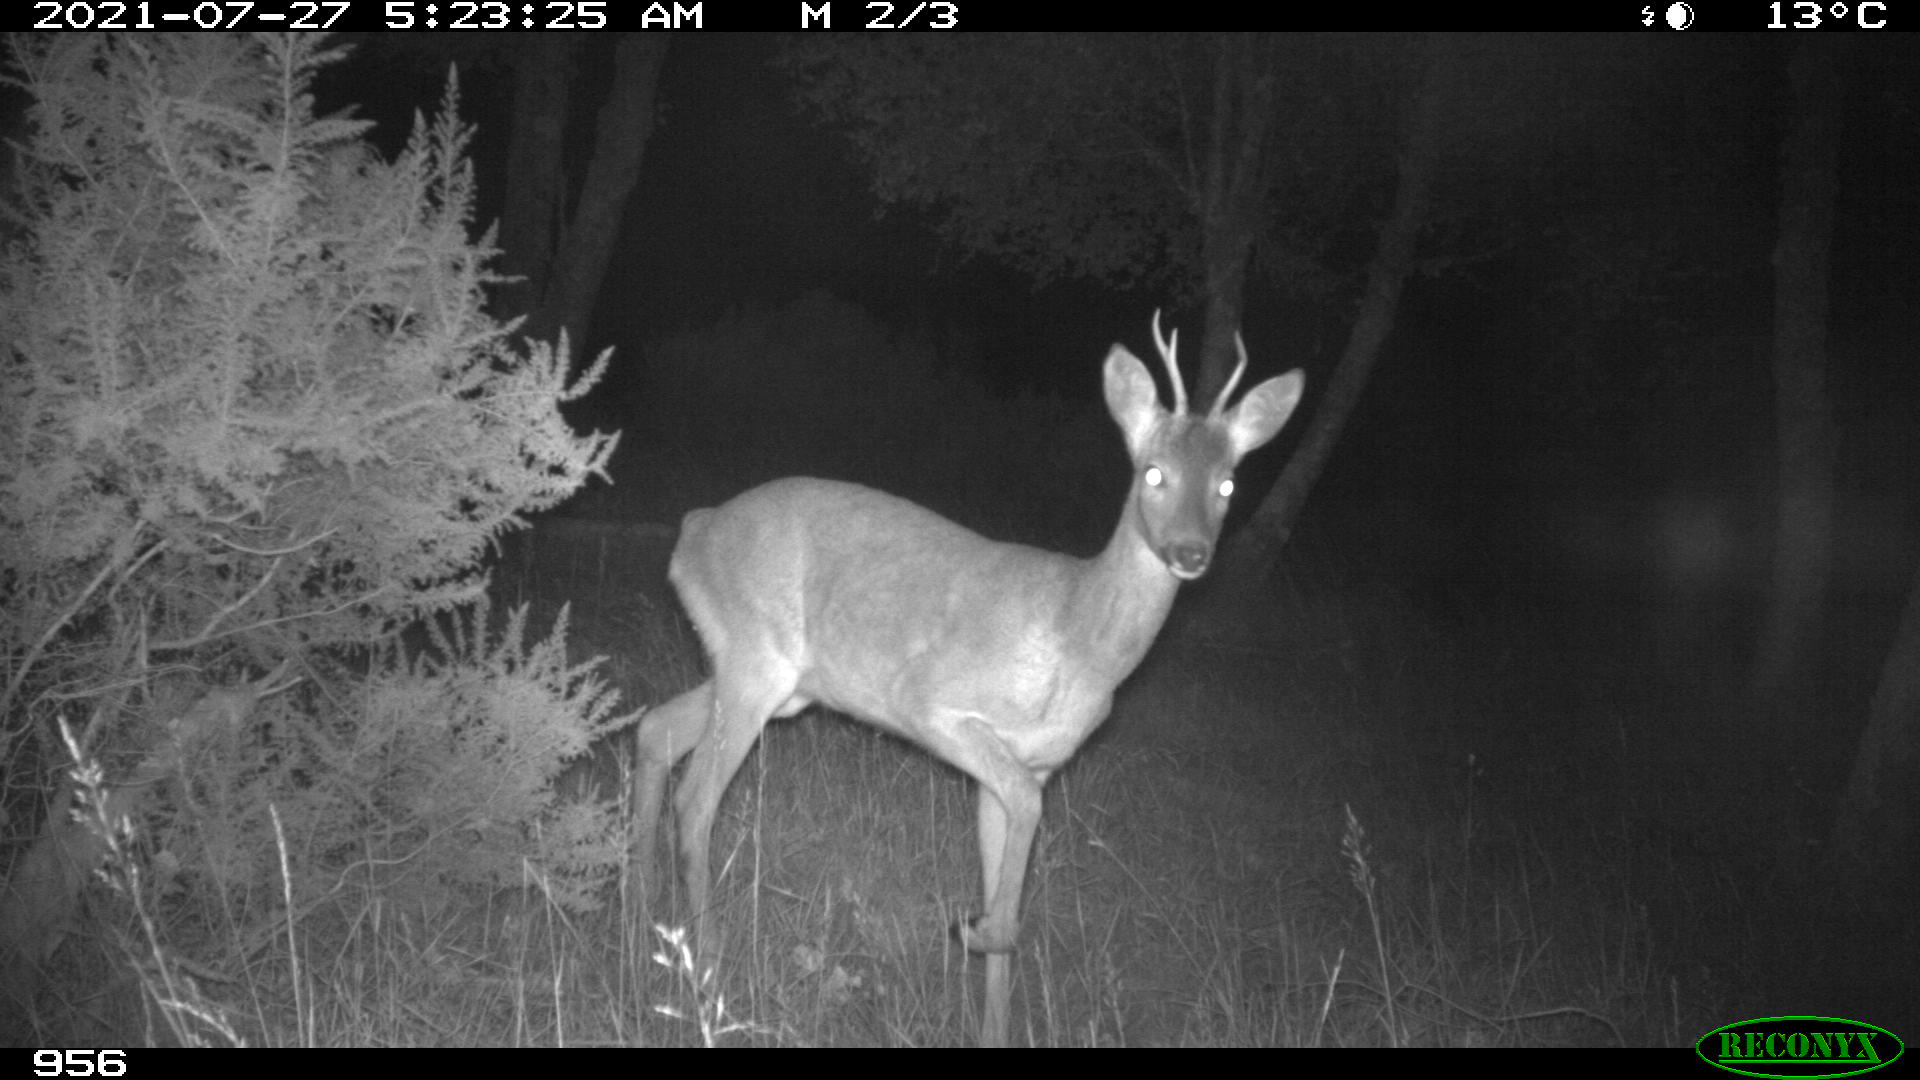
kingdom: Animalia
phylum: Chordata
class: Mammalia
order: Artiodactyla
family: Cervidae
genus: Capreolus
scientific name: Capreolus capreolus
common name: Western roe deer
